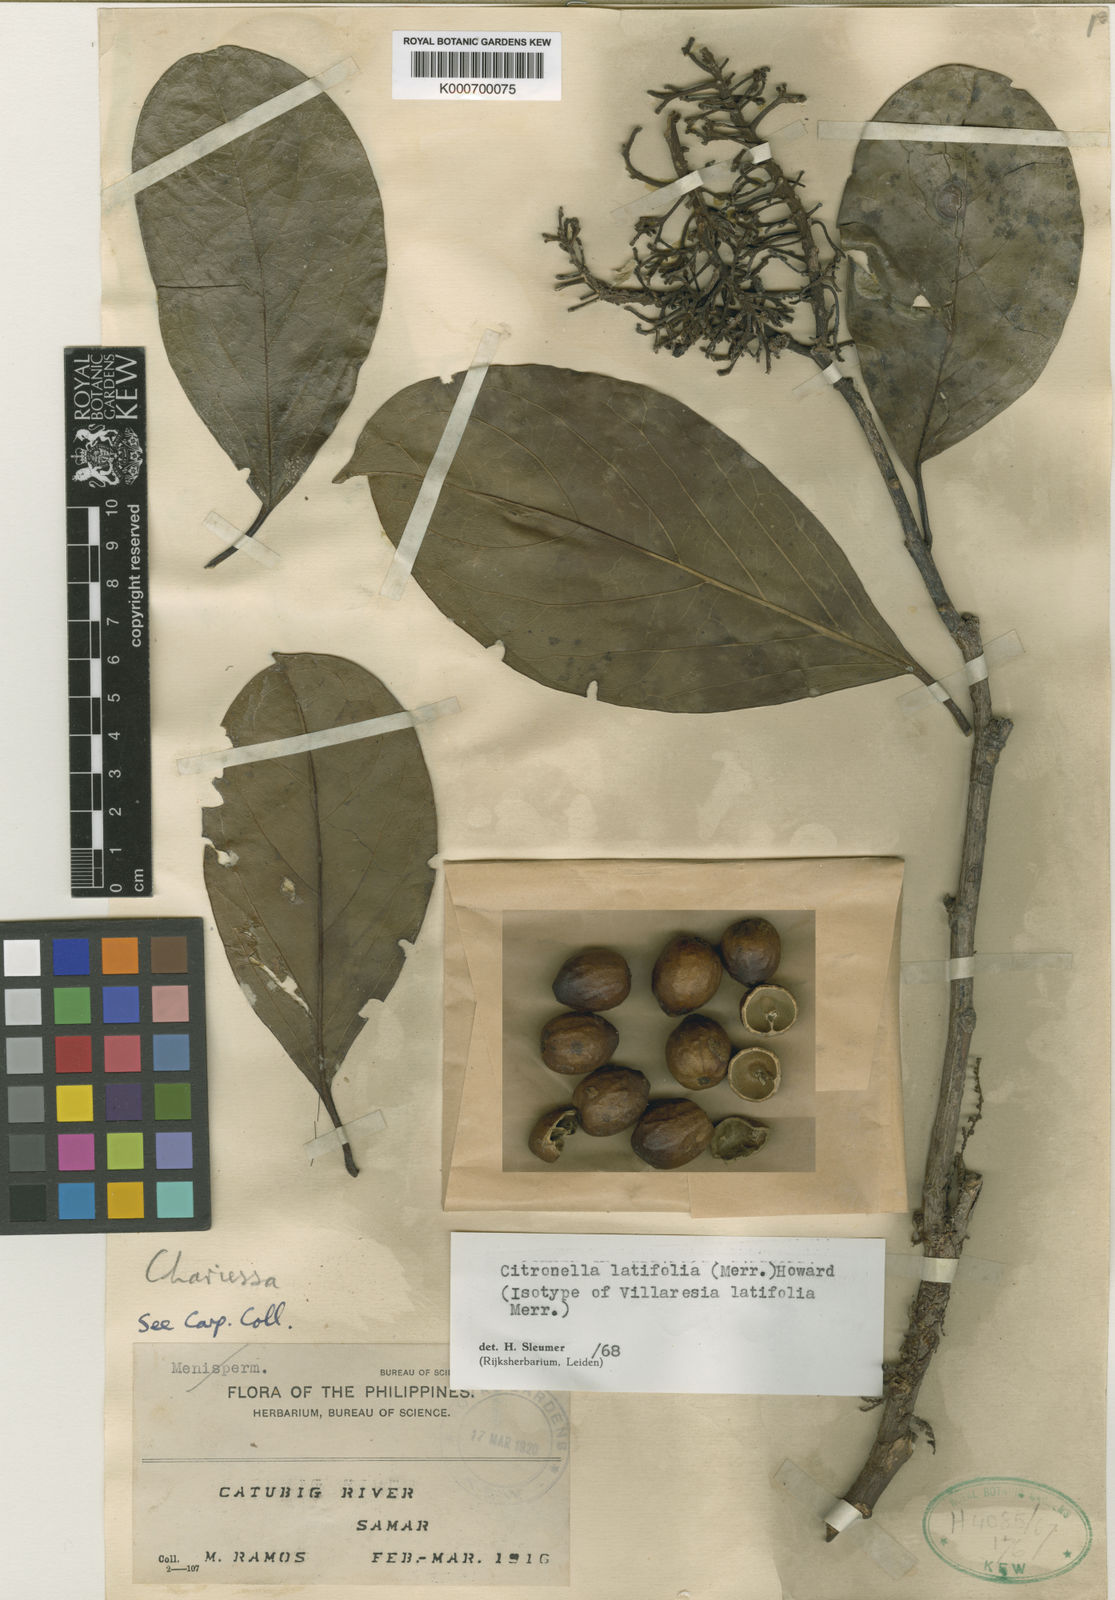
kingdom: Plantae
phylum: Tracheophyta
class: Magnoliopsida
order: Cardiopteridales
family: Cardiopteridaceae
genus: Citronella
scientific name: Citronella latifolia
